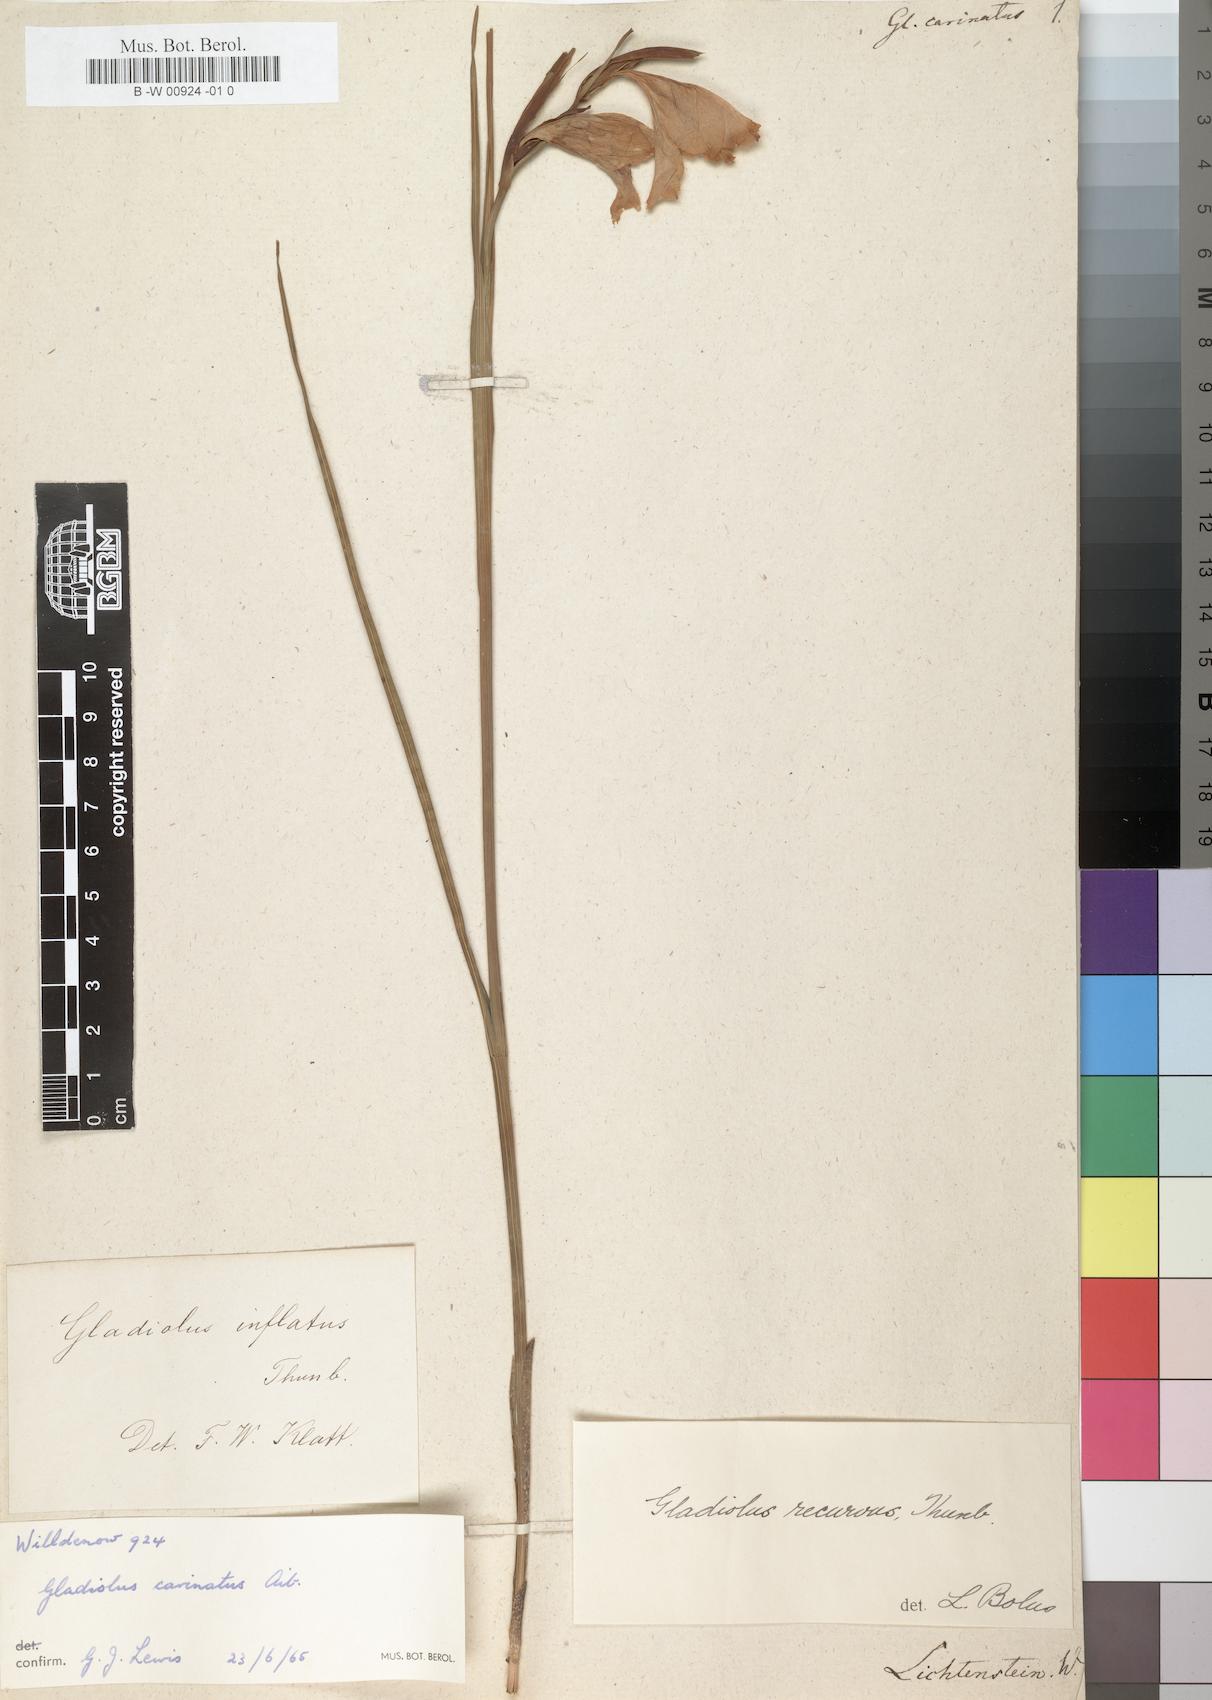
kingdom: Plantae
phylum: Tracheophyta
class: Liliopsida
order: Asparagales
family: Iridaceae
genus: Gladiolus
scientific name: Gladiolus carinatus
